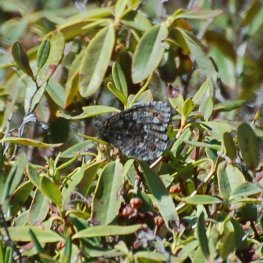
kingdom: Animalia
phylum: Arthropoda
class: Insecta
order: Lepidoptera
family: Nymphalidae
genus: Oeneis
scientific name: Oeneis jutta
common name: Jutta Arctic
